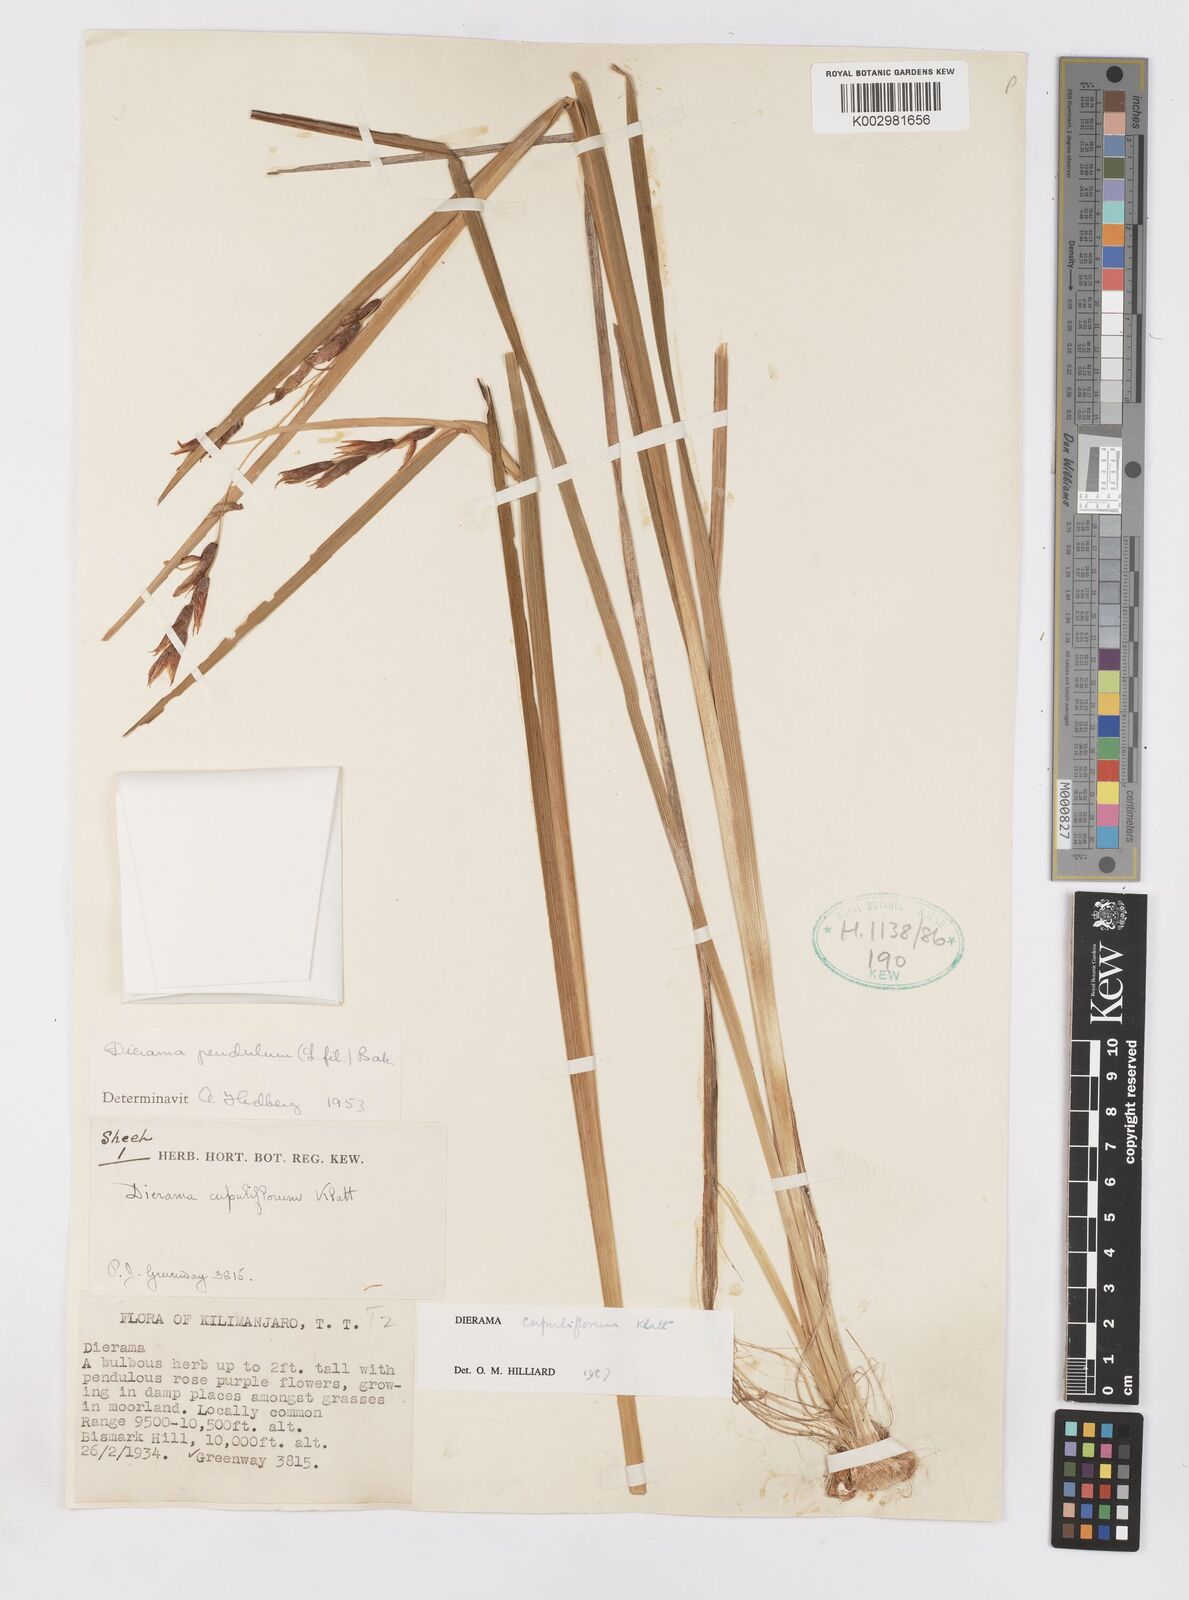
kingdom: Plantae
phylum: Tracheophyta
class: Liliopsida
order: Asparagales
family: Iridaceae
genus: Dierama
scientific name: Dierama cupuliflorum
